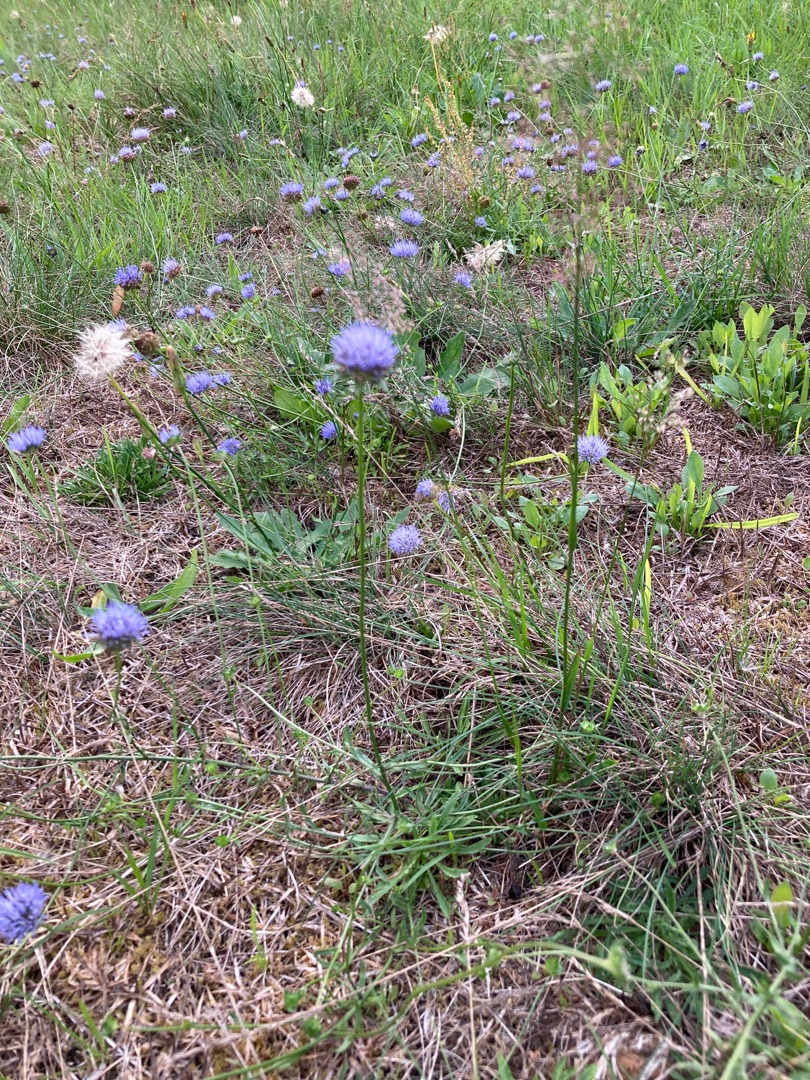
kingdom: Plantae
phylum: Tracheophyta
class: Magnoliopsida
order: Asterales
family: Campanulaceae
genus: Jasione
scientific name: Jasione montana
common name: Blåmunke
